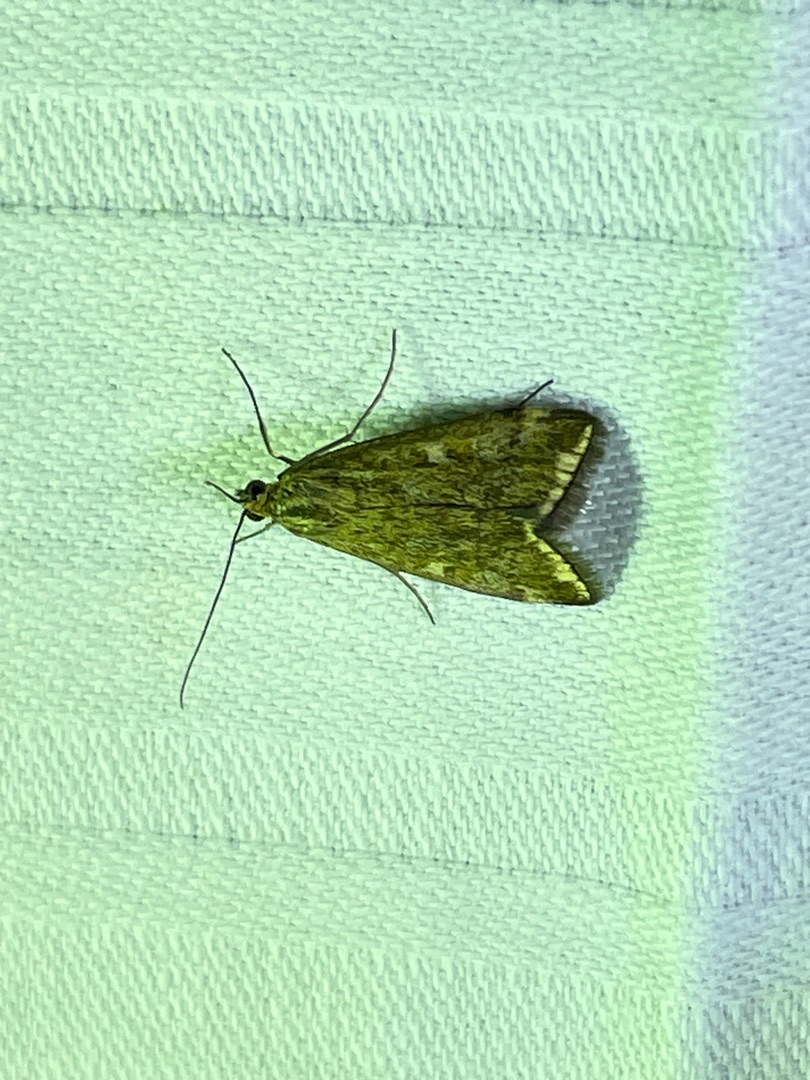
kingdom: Animalia
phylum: Arthropoda
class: Insecta
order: Lepidoptera
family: Crambidae
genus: Loxostege
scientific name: Loxostege sticticalis
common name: Gulstribet halvmøl
